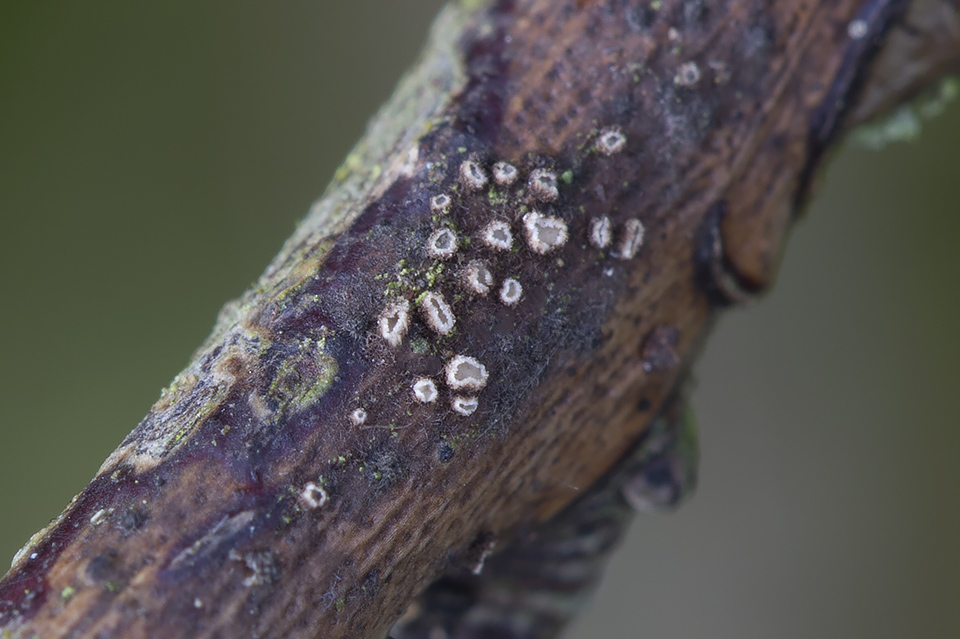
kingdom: Fungi
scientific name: Fungi
